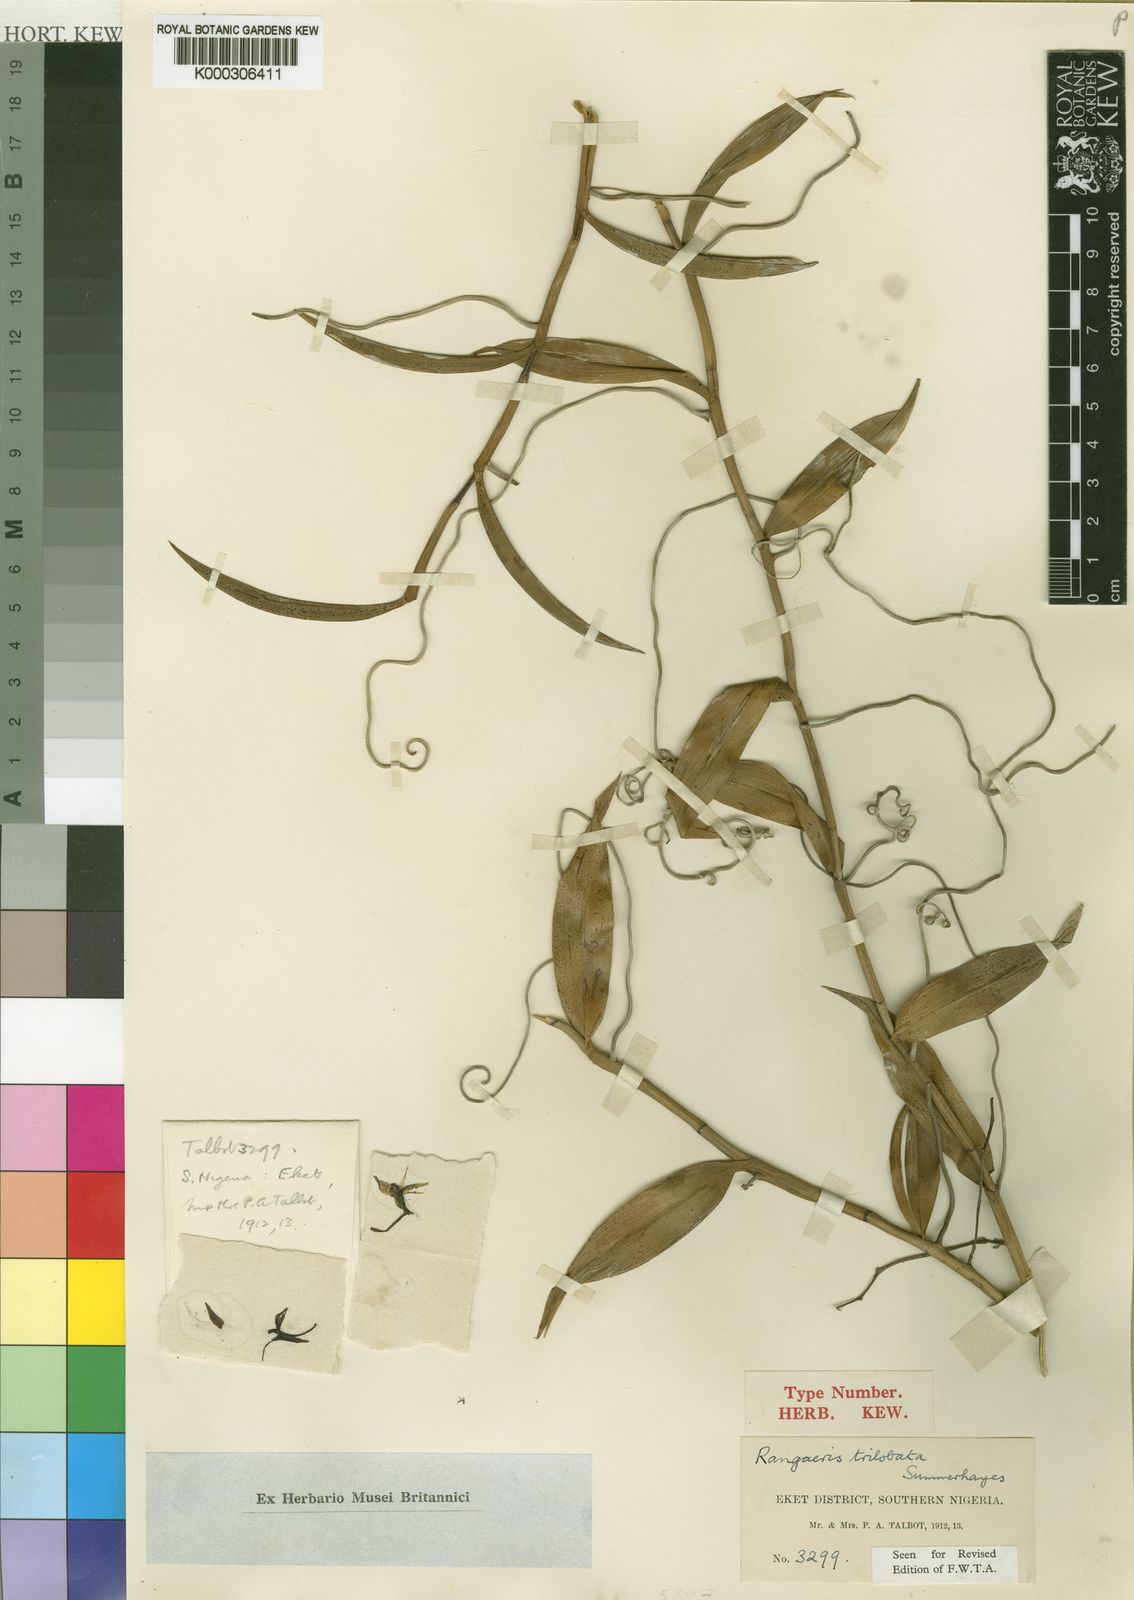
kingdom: Plantae
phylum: Tracheophyta
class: Liliopsida
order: Asparagales
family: Orchidaceae
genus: Rangaeris
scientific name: Rangaeris trilobata
